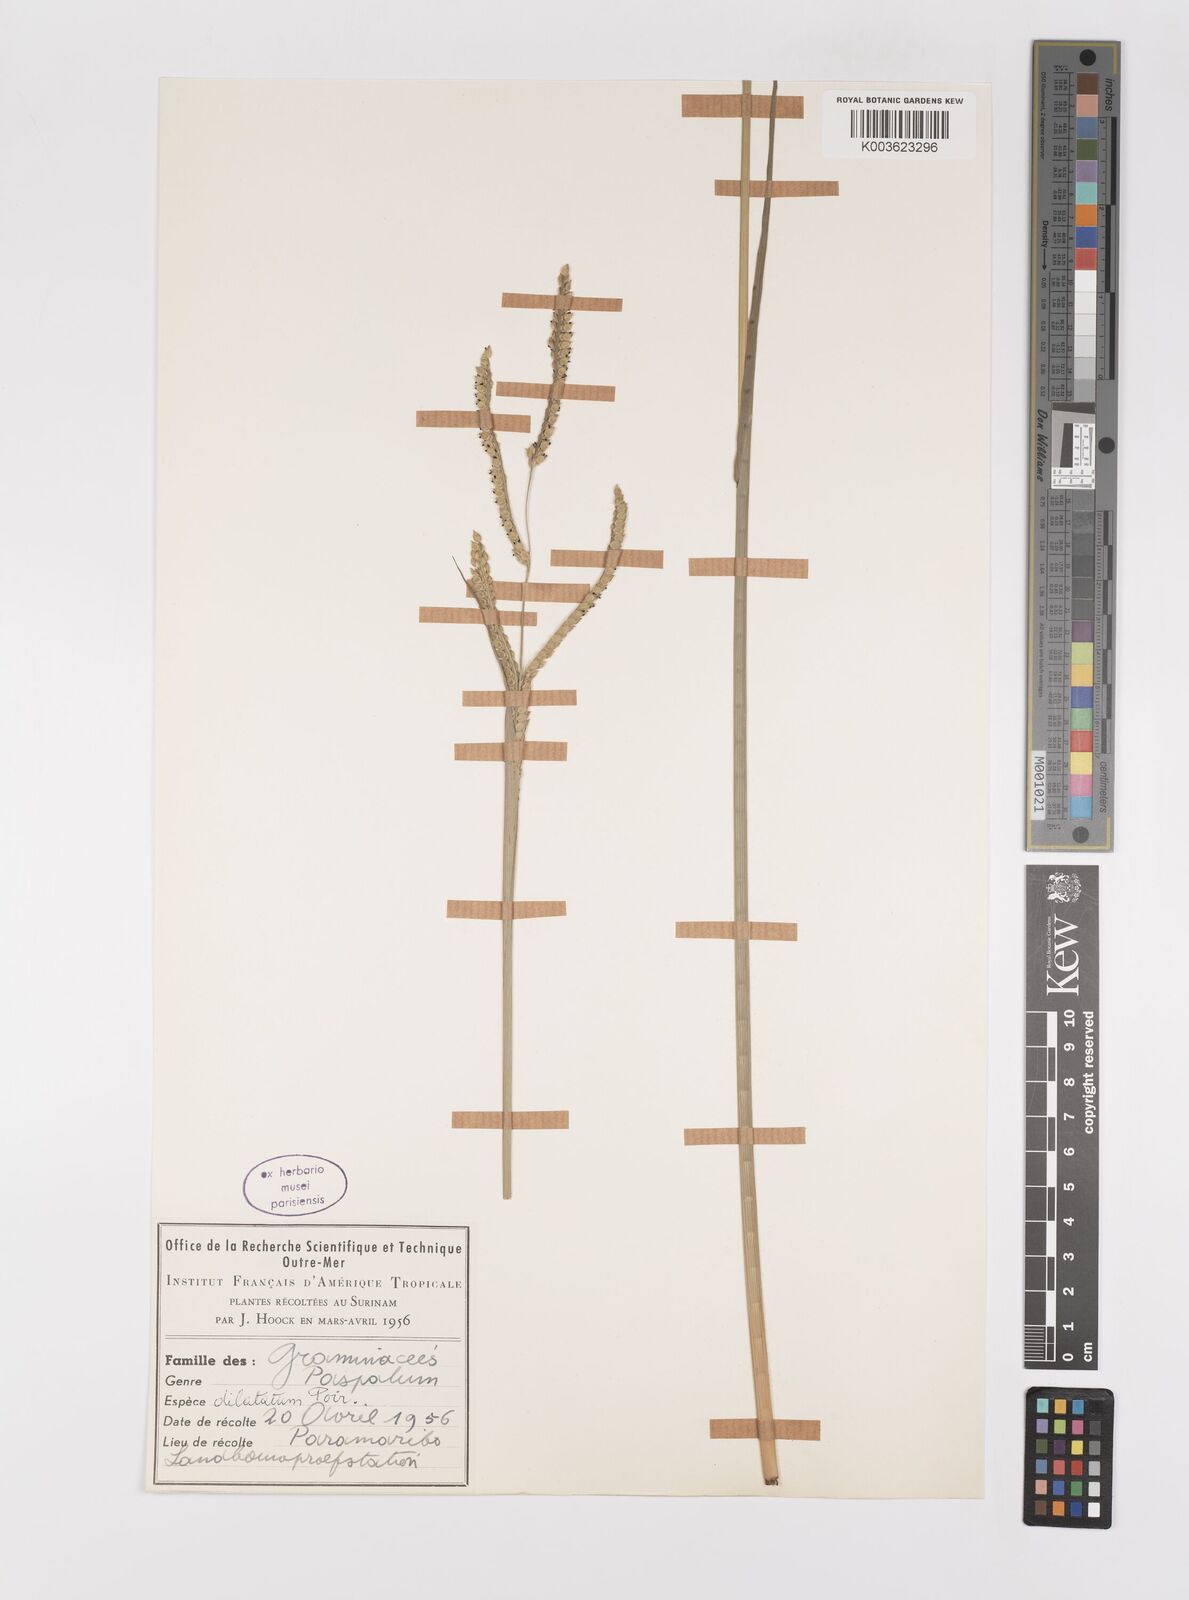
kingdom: Plantae
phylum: Tracheophyta
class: Liliopsida
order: Poales
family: Poaceae
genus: Paspalum
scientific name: Paspalum dilatatum
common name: Dallisgrass
